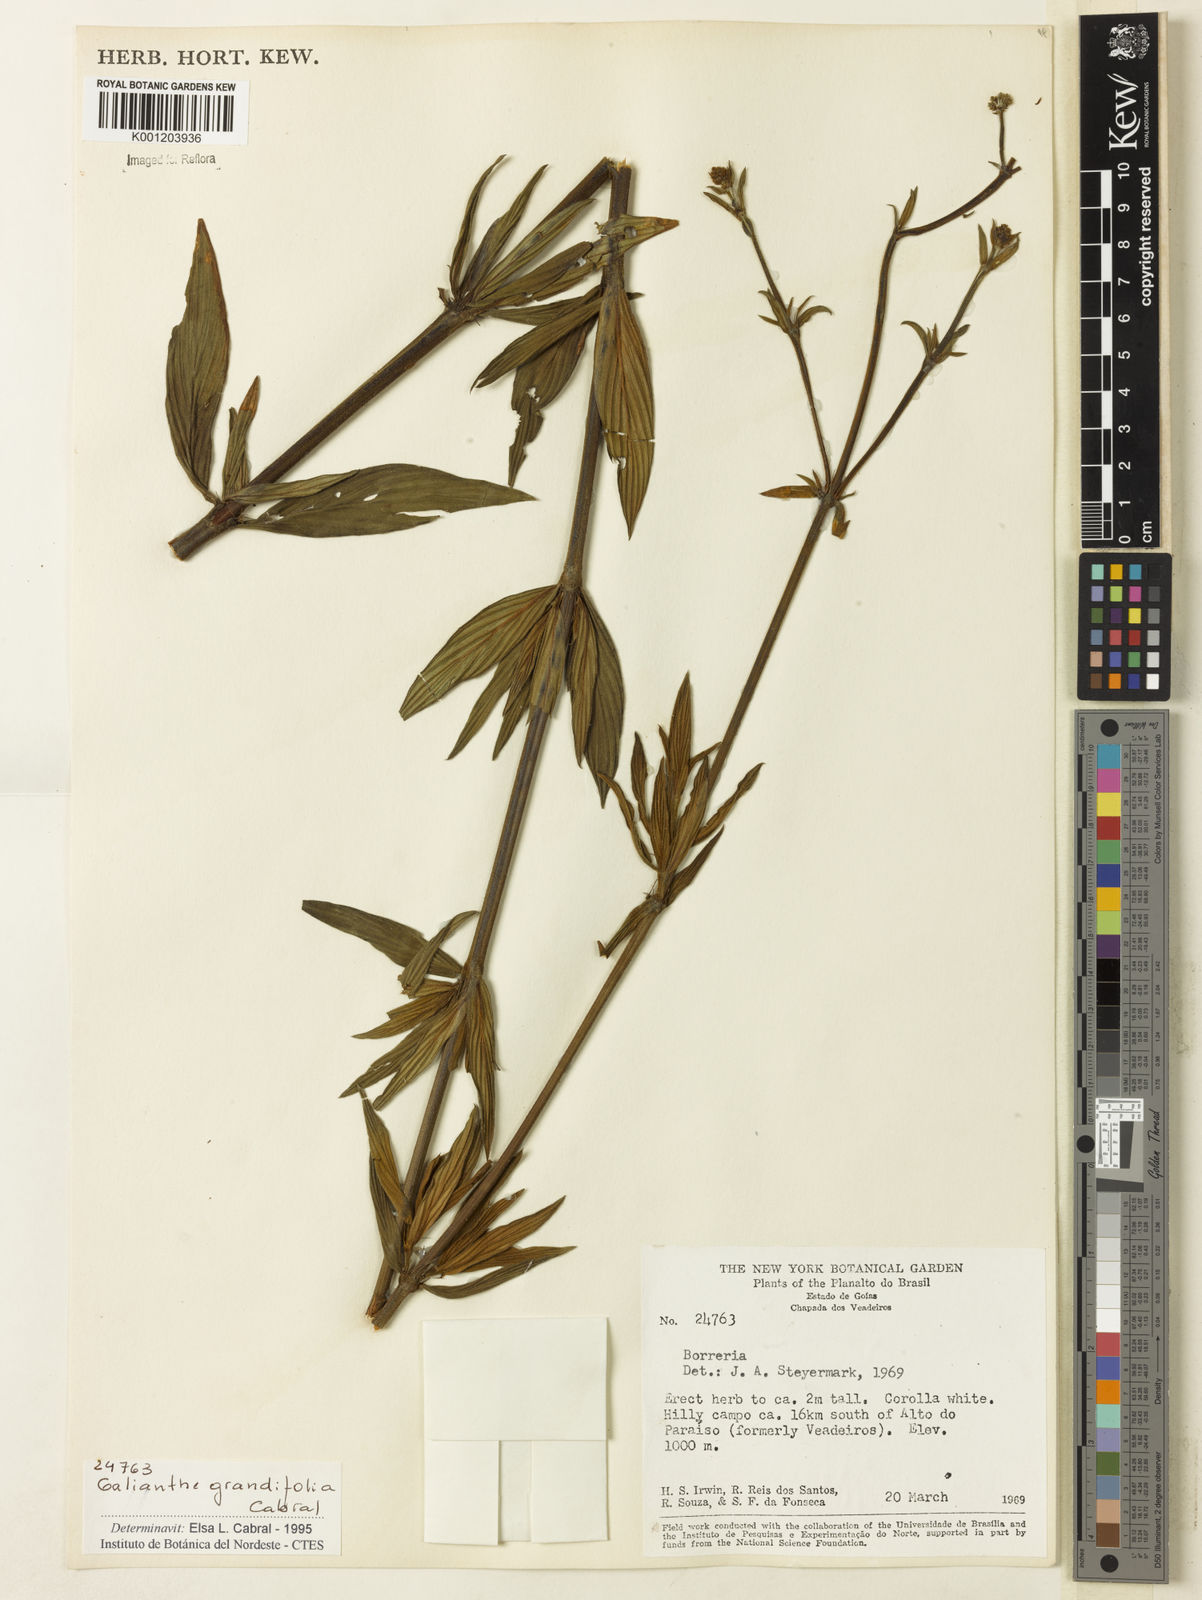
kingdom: Plantae
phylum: Tracheophyta
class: Magnoliopsida
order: Gentianales
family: Rubiaceae
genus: Galianthe
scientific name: Galianthe grandifolia
